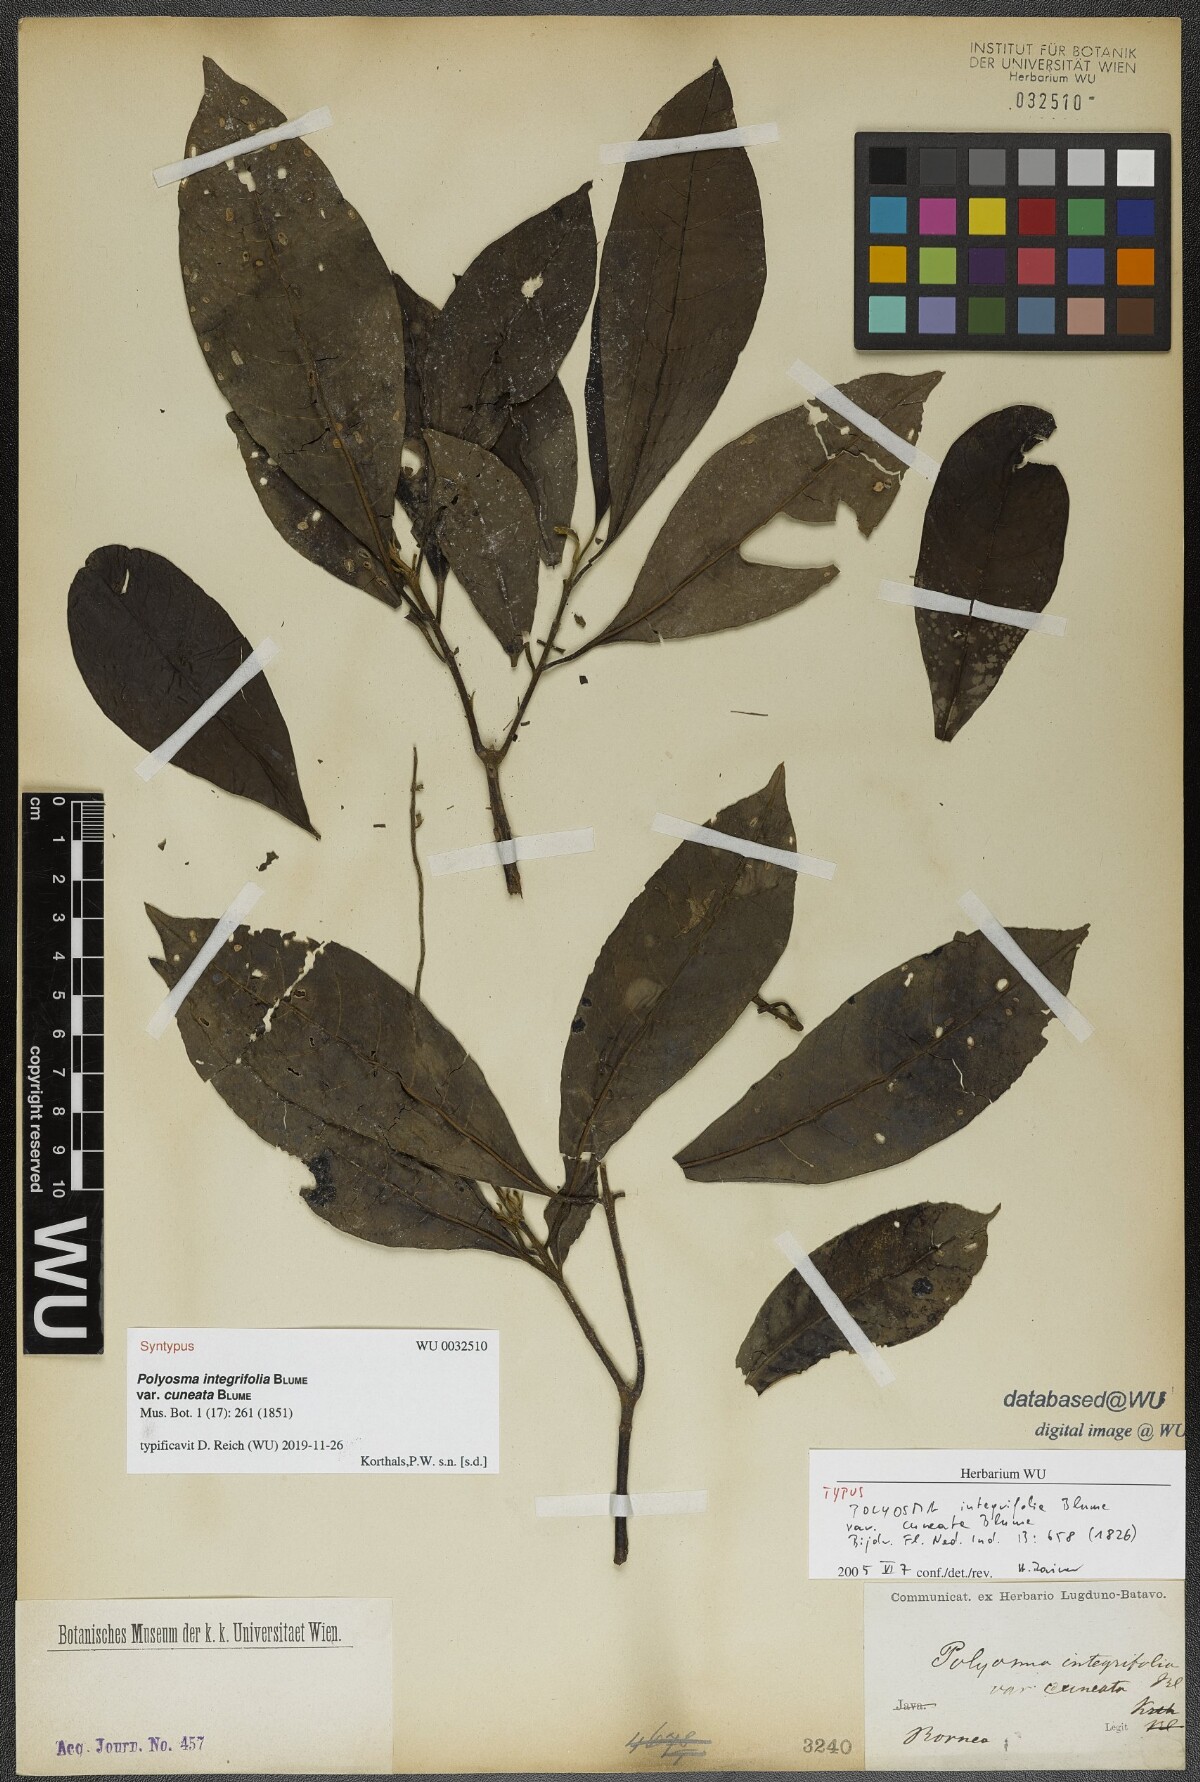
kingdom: Plantae
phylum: Tracheophyta
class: Magnoliopsida
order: Escalloniales
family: Escalloniaceae
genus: Polyosma
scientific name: Polyosma integrifolia
